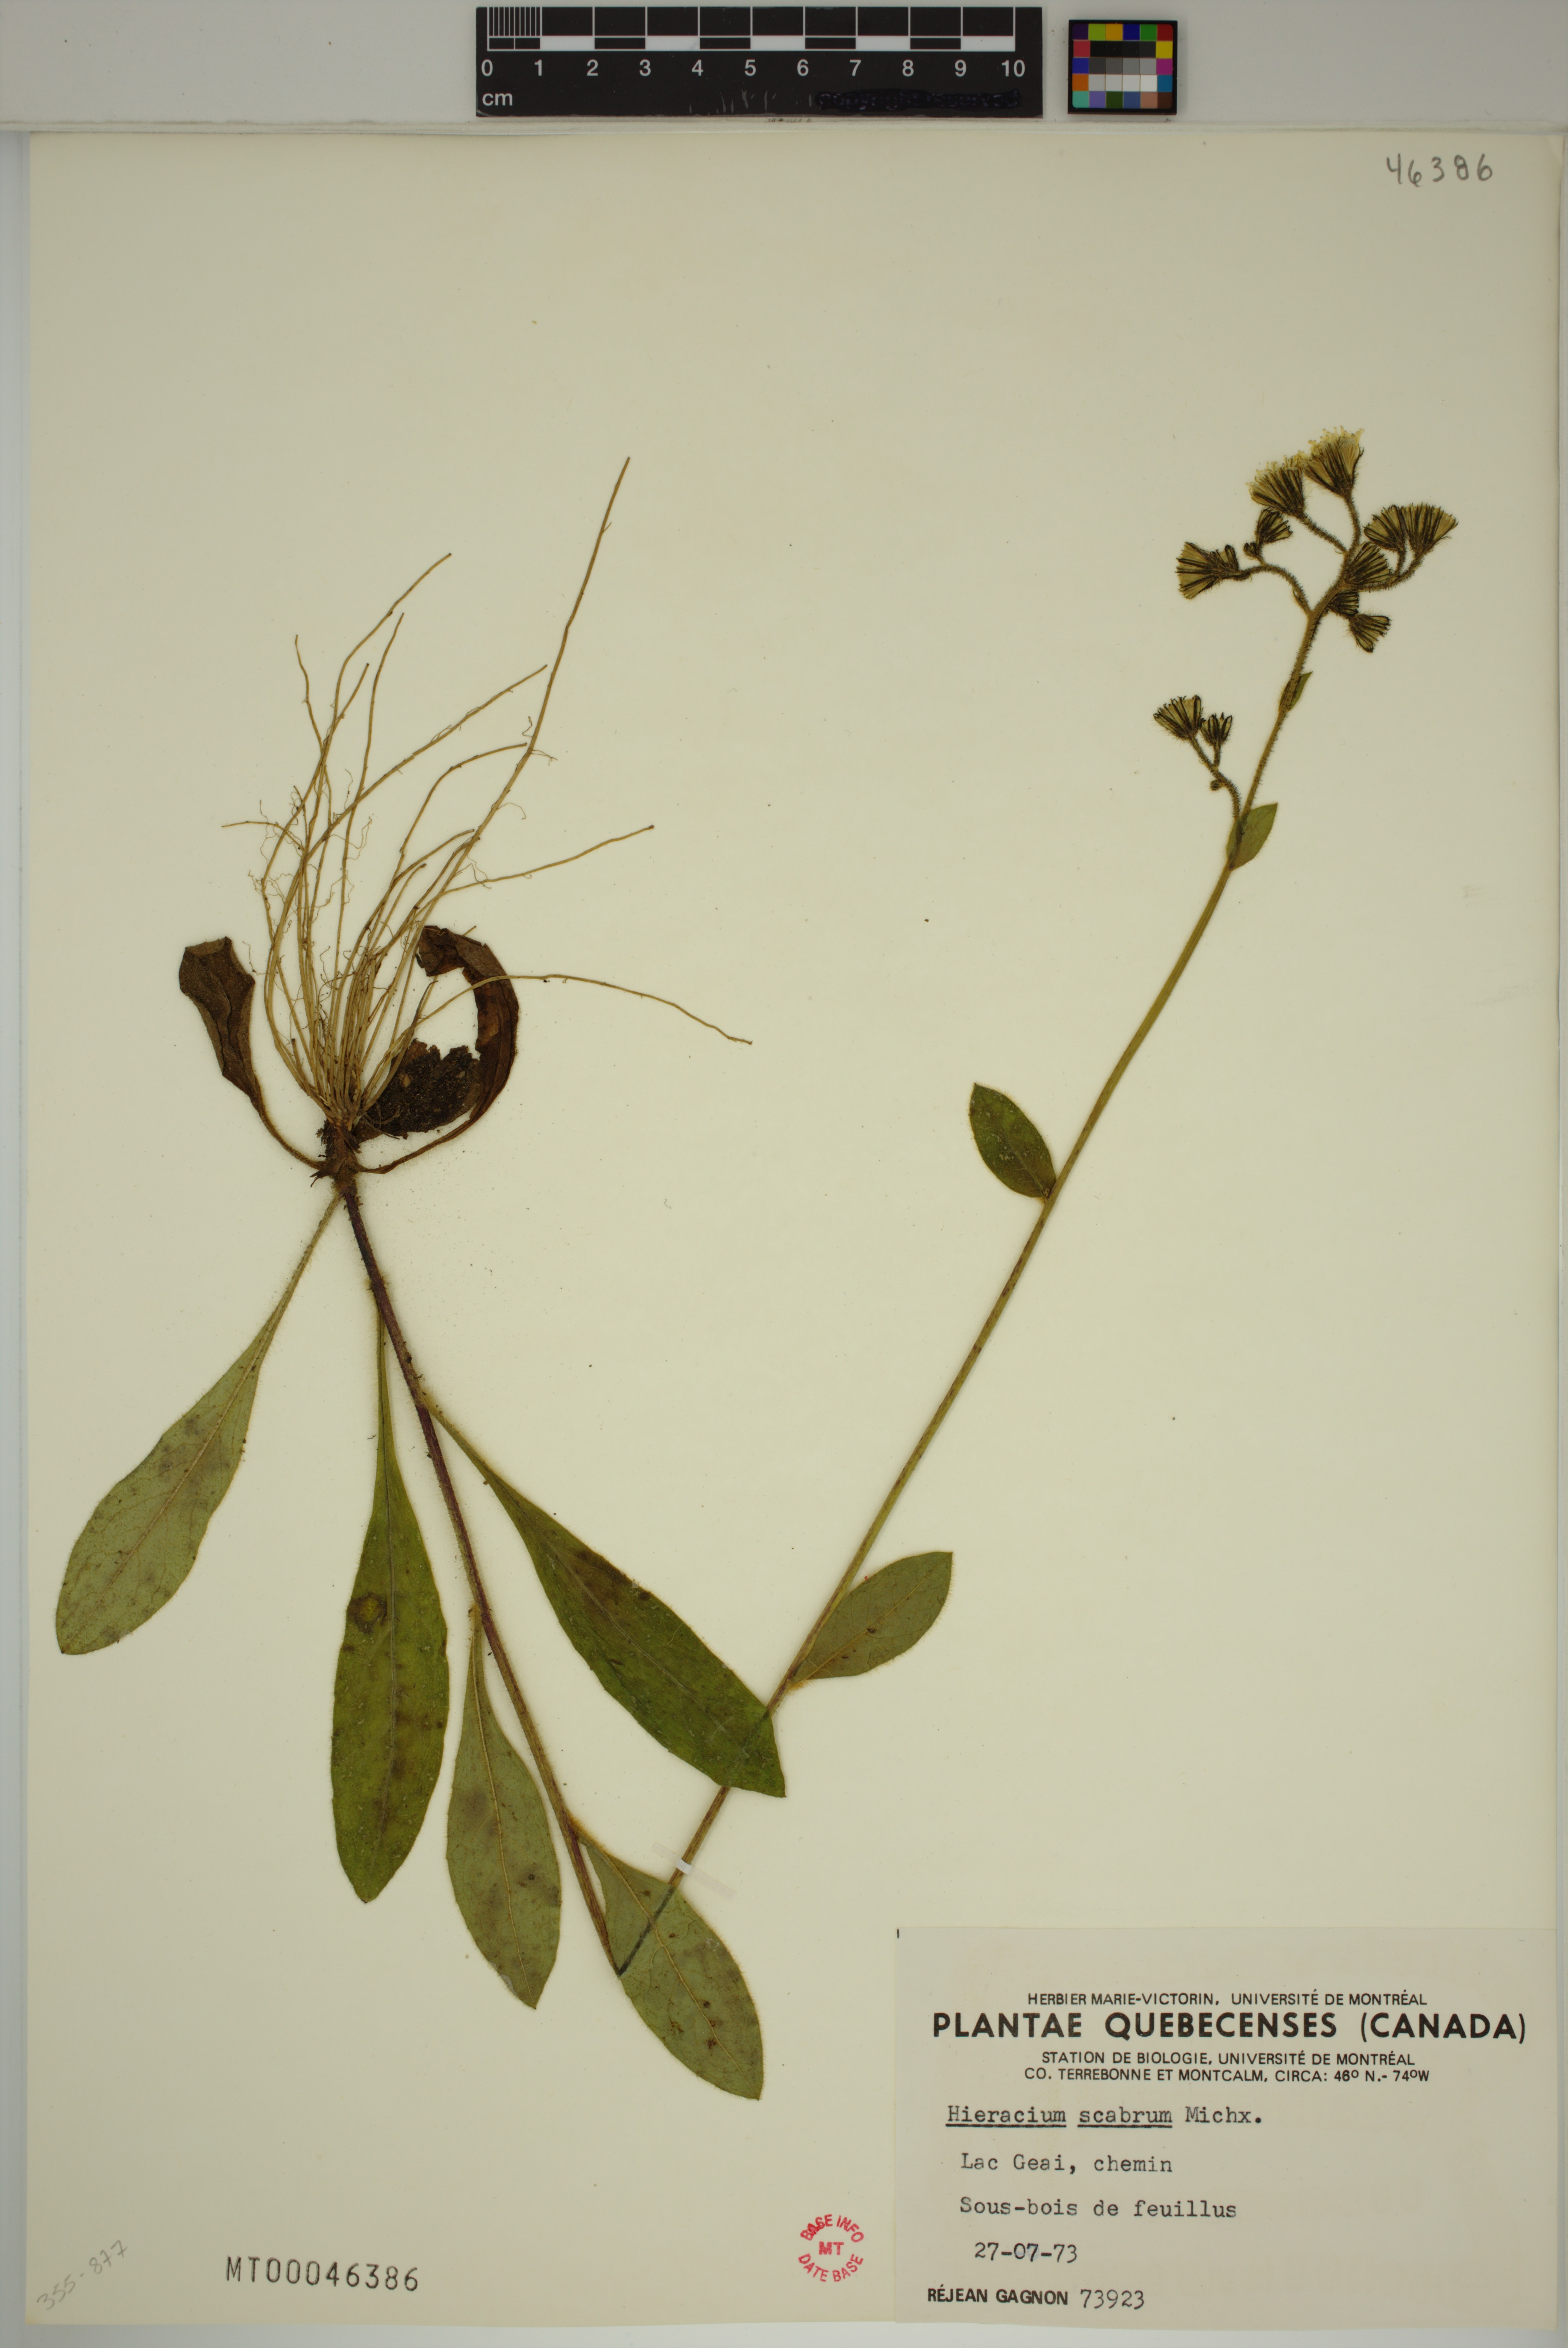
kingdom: Plantae
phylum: Tracheophyta
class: Magnoliopsida
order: Asterales
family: Asteraceae
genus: Hieracium
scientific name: Hieracium scabrum
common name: Rough hawkweed
